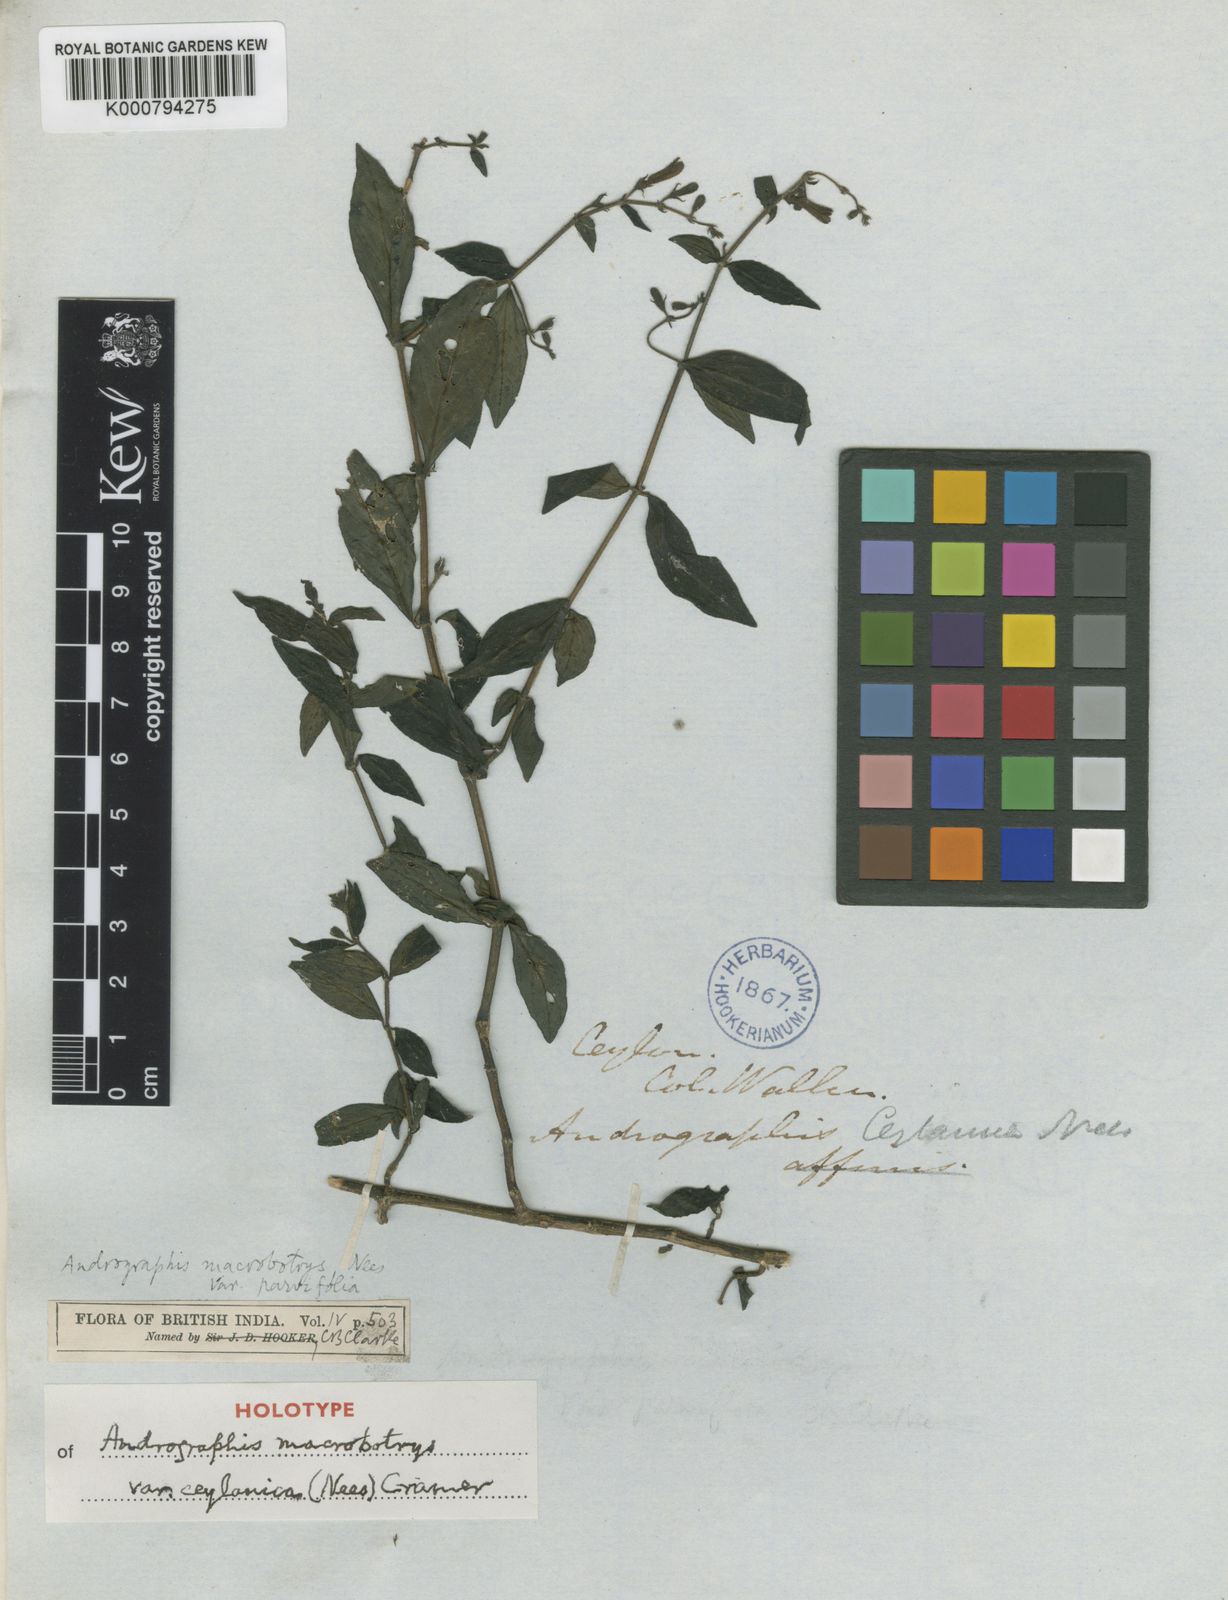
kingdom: Plantae
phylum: Tracheophyta
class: Magnoliopsida
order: Lamiales
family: Acanthaceae
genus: Andrographis
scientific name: Andrographis macrobotrys
